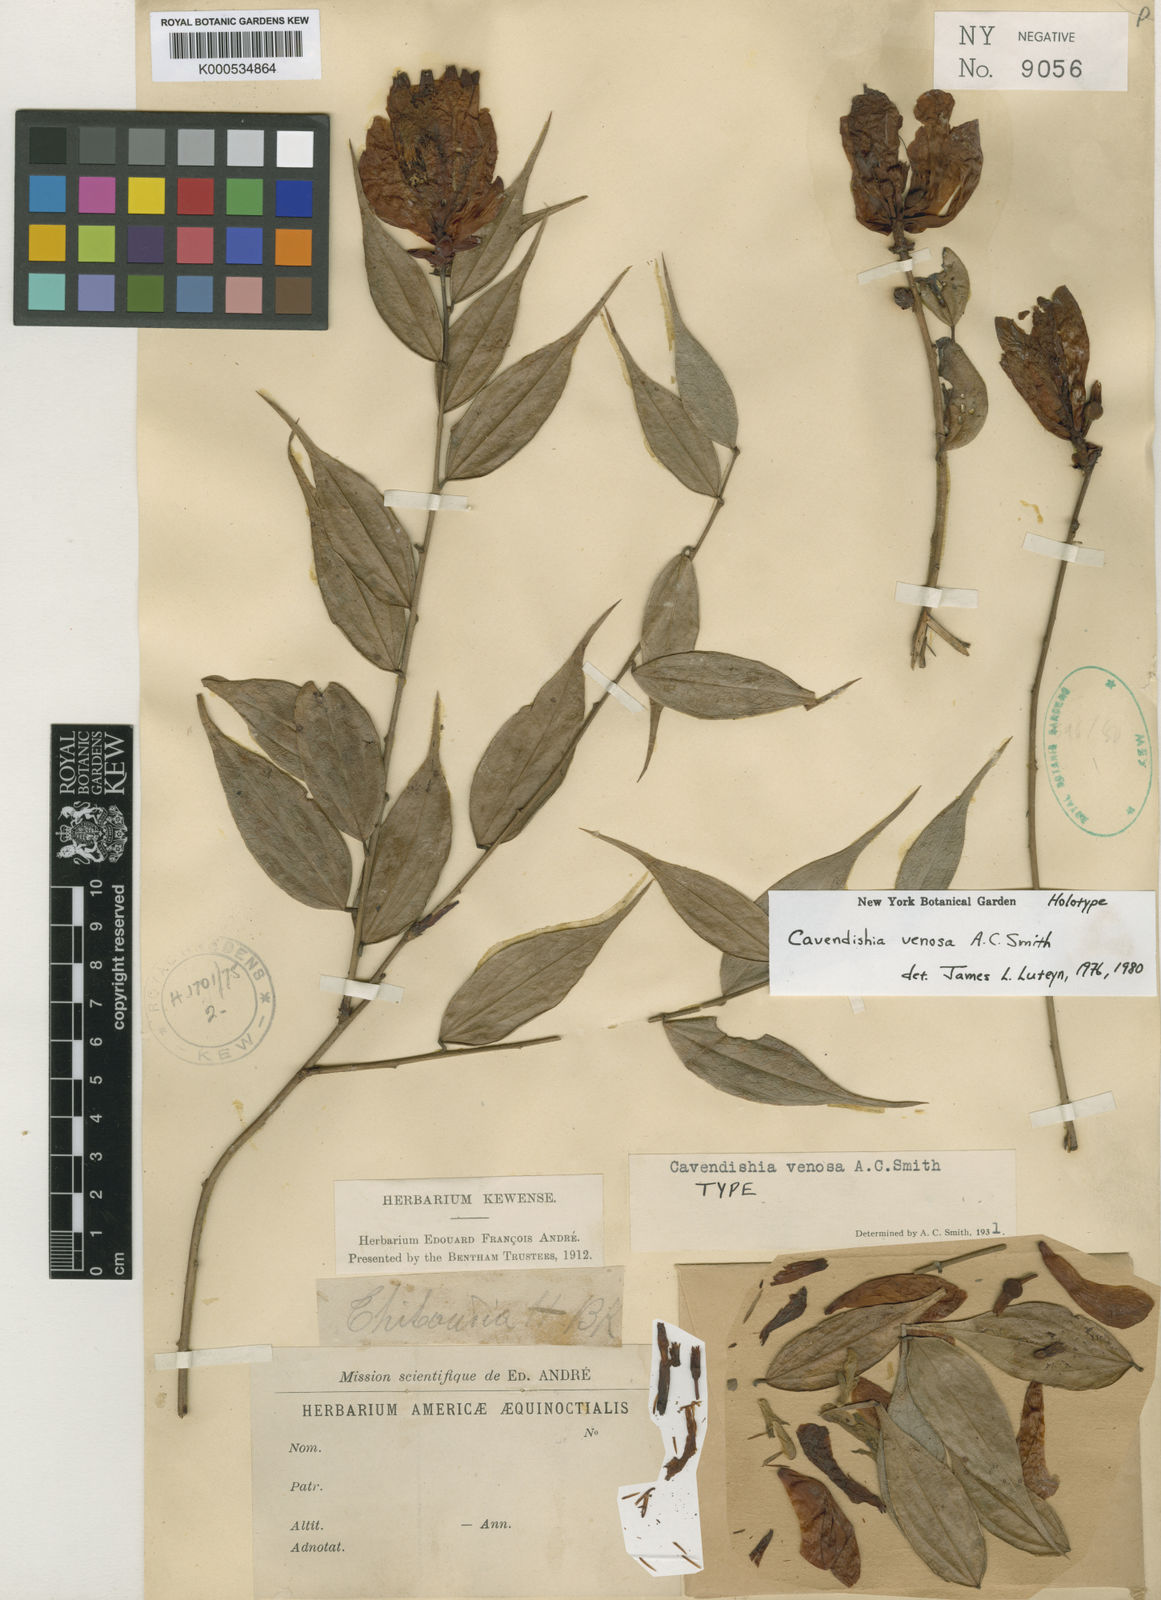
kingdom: Plantae
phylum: Tracheophyta
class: Magnoliopsida
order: Ericales
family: Ericaceae
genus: Cavendishia
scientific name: Cavendishia venosa
